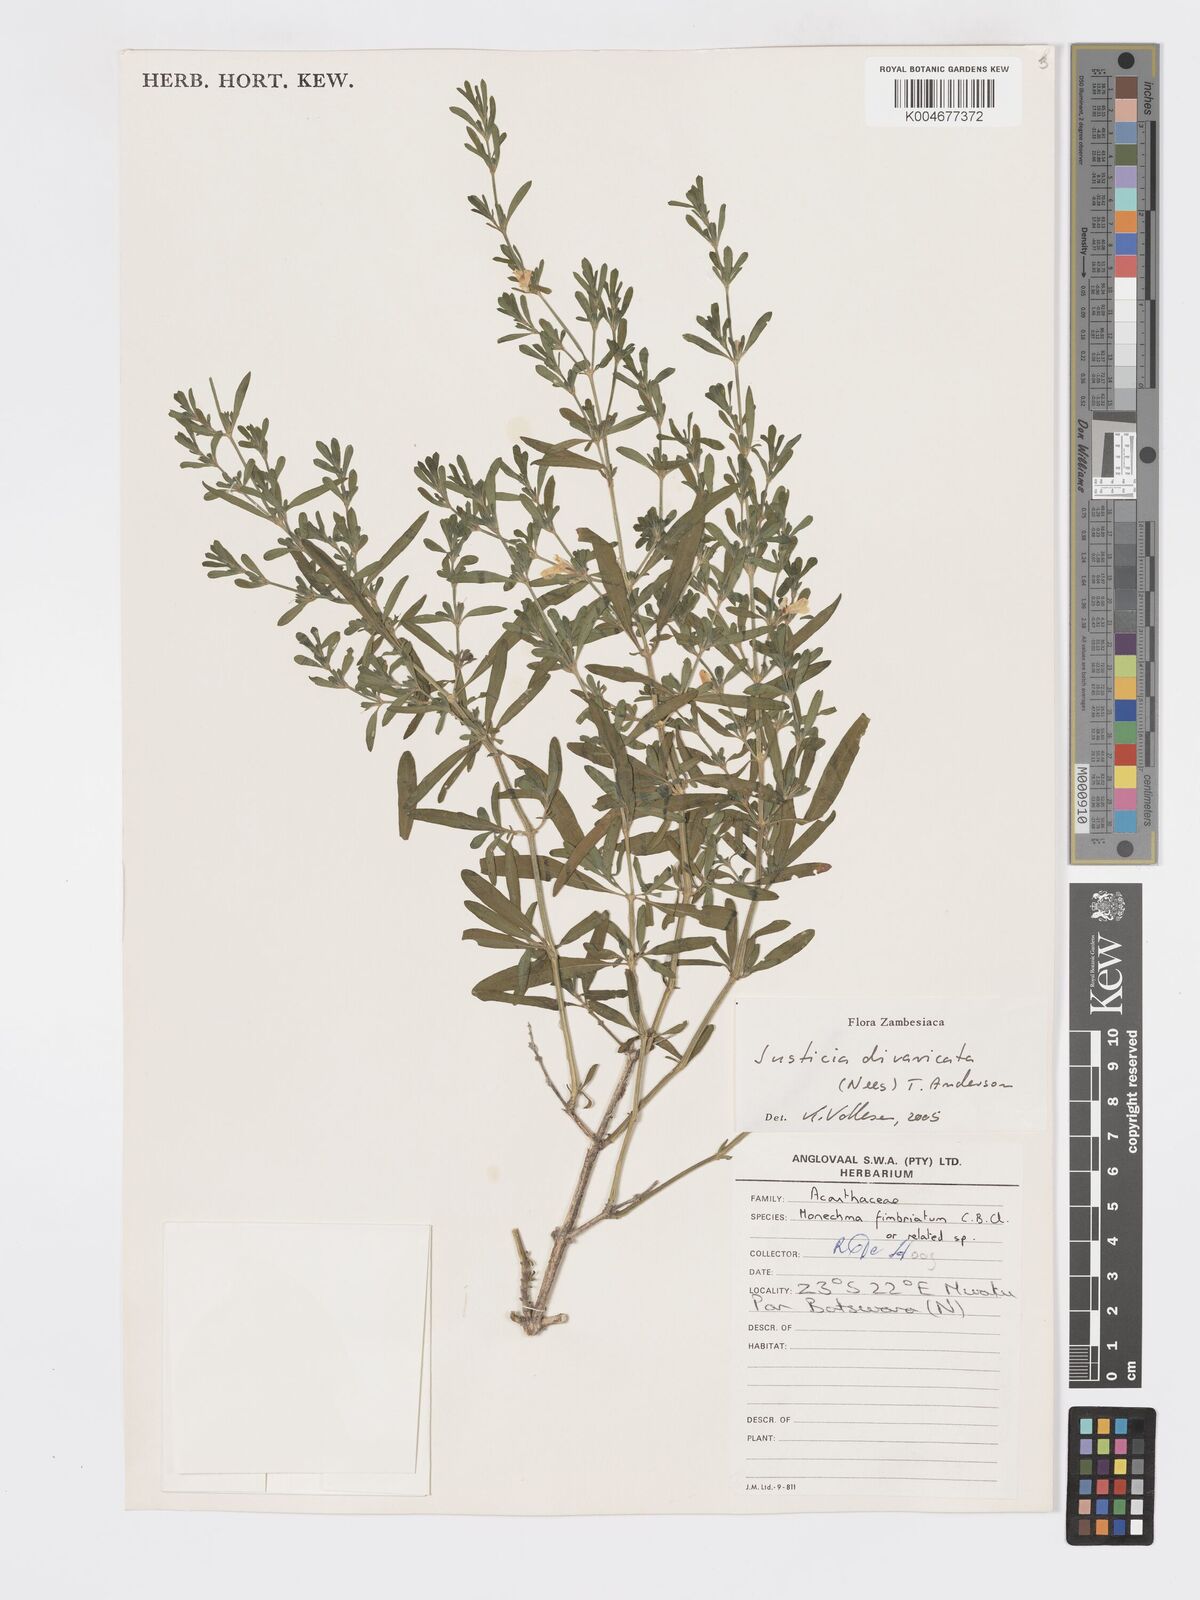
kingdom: Plantae
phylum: Tracheophyta
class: Magnoliopsida
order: Lamiales
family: Acanthaceae
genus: Pogonospermum
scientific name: Pogonospermum
